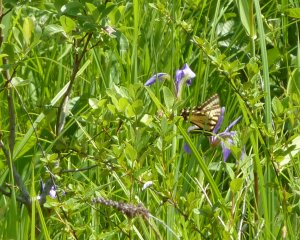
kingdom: Animalia
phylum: Arthropoda
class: Insecta
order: Lepidoptera
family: Papilionidae
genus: Pterourus
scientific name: Pterourus canadensis
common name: Canadian Tiger Swallowtail
